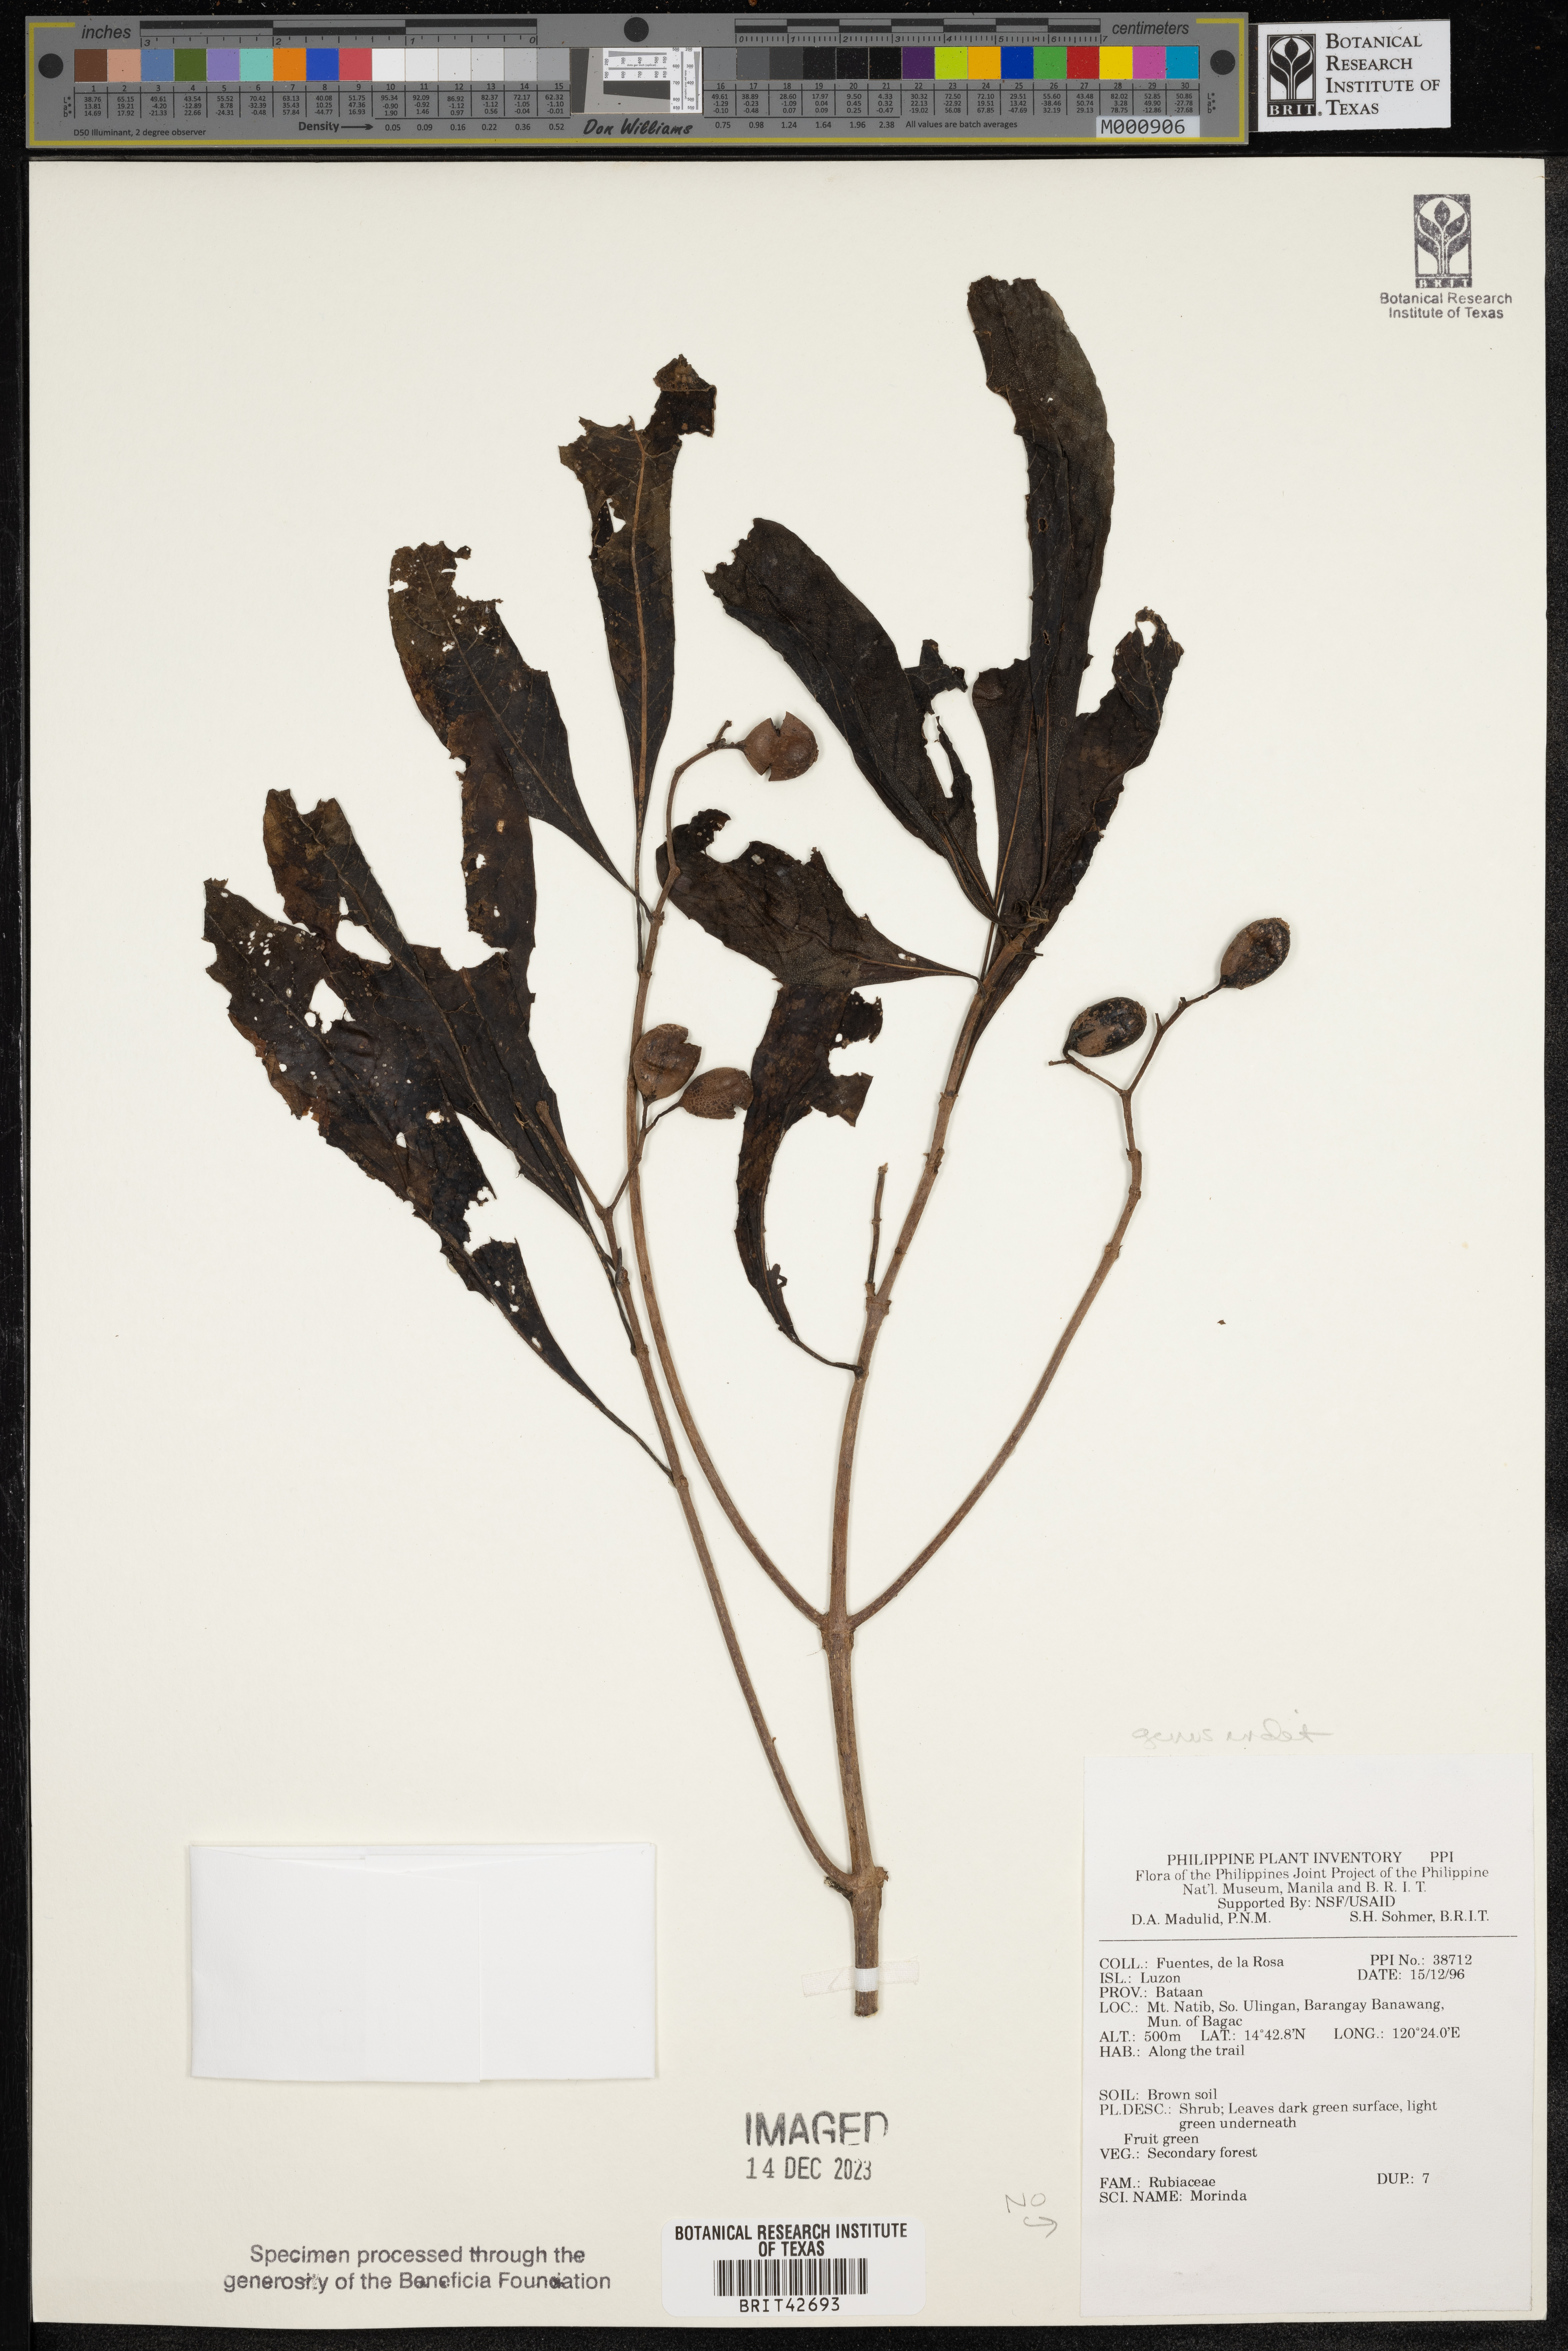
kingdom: Plantae
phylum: Tracheophyta
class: Magnoliopsida
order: Gentianales
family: Rubiaceae
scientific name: Rubiaceae
